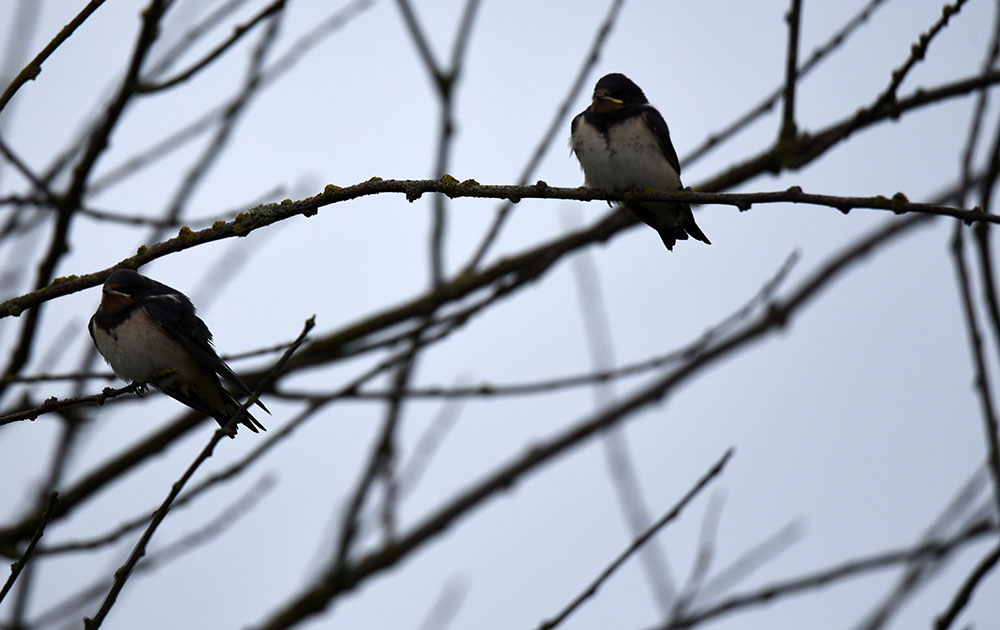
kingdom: Animalia
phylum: Chordata
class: Aves
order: Passeriformes
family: Hirundinidae
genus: Hirundo
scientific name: Hirundo rustica
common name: Barn swallow
